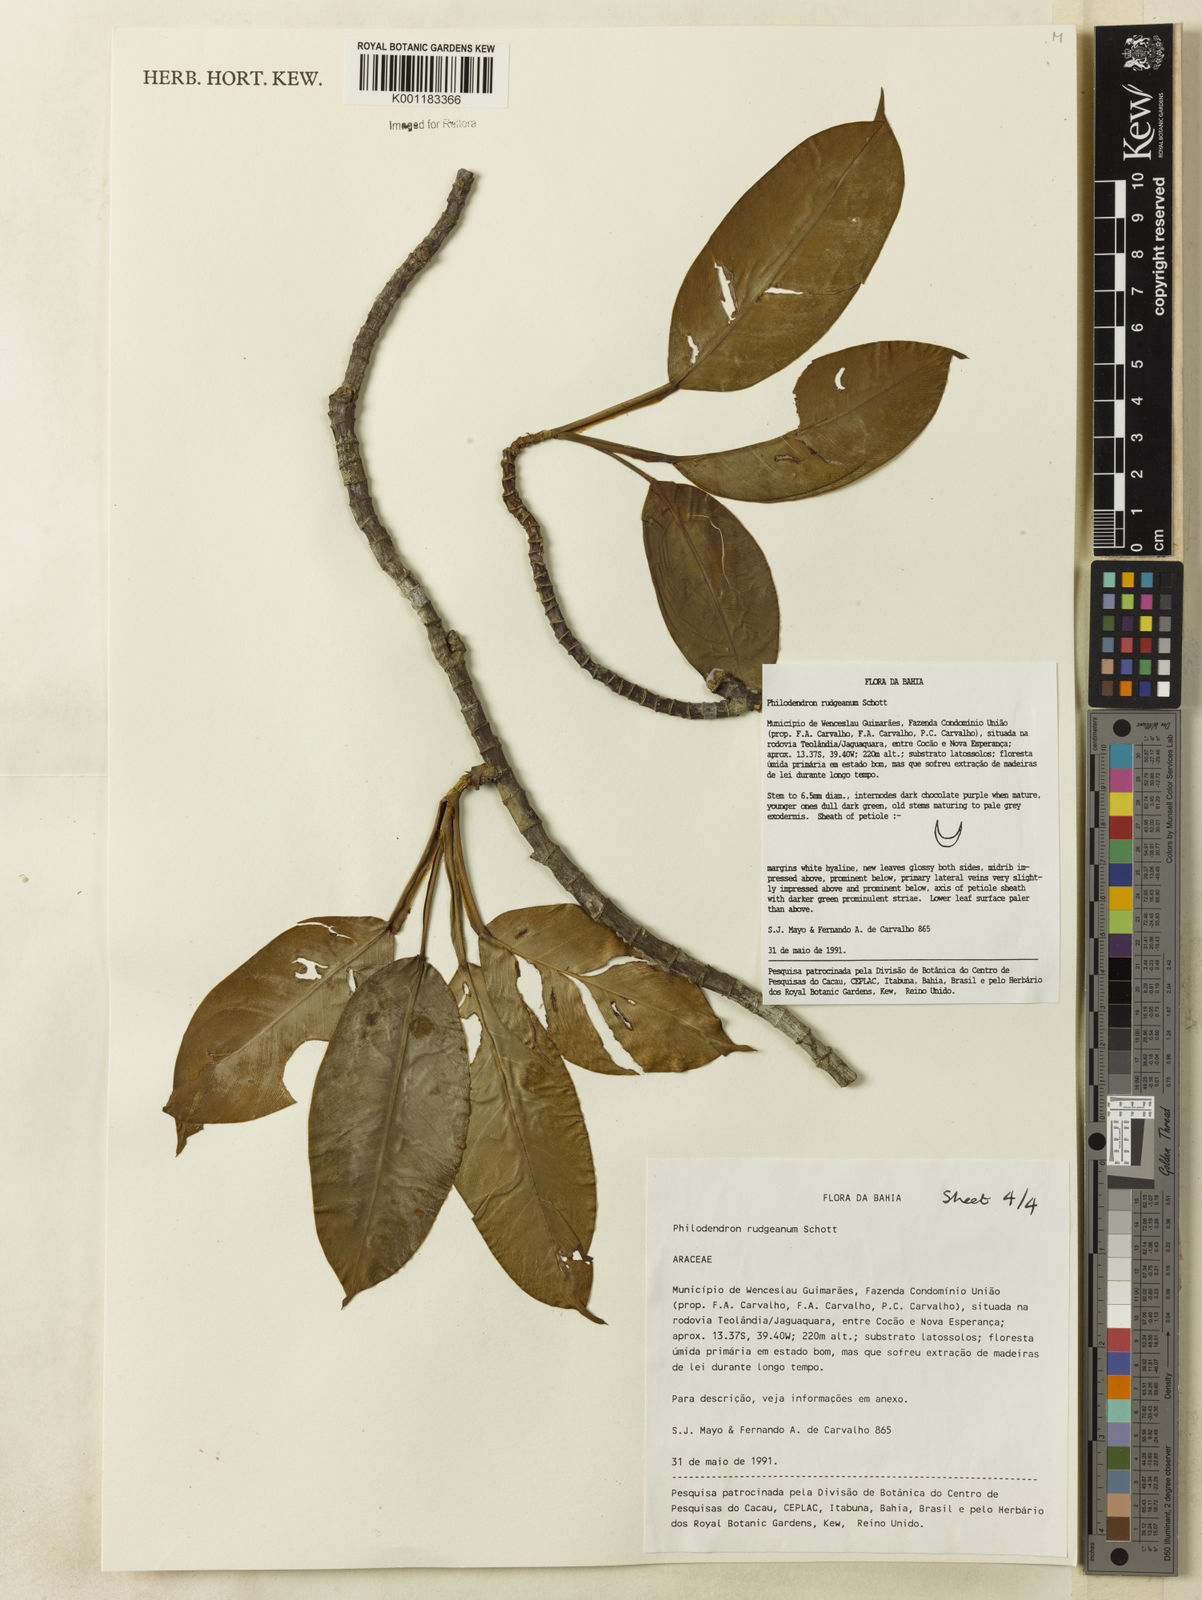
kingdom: Plantae
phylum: Tracheophyta
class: Liliopsida
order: Alismatales
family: Araceae
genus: Philodendron
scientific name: Philodendron rudgeanum
